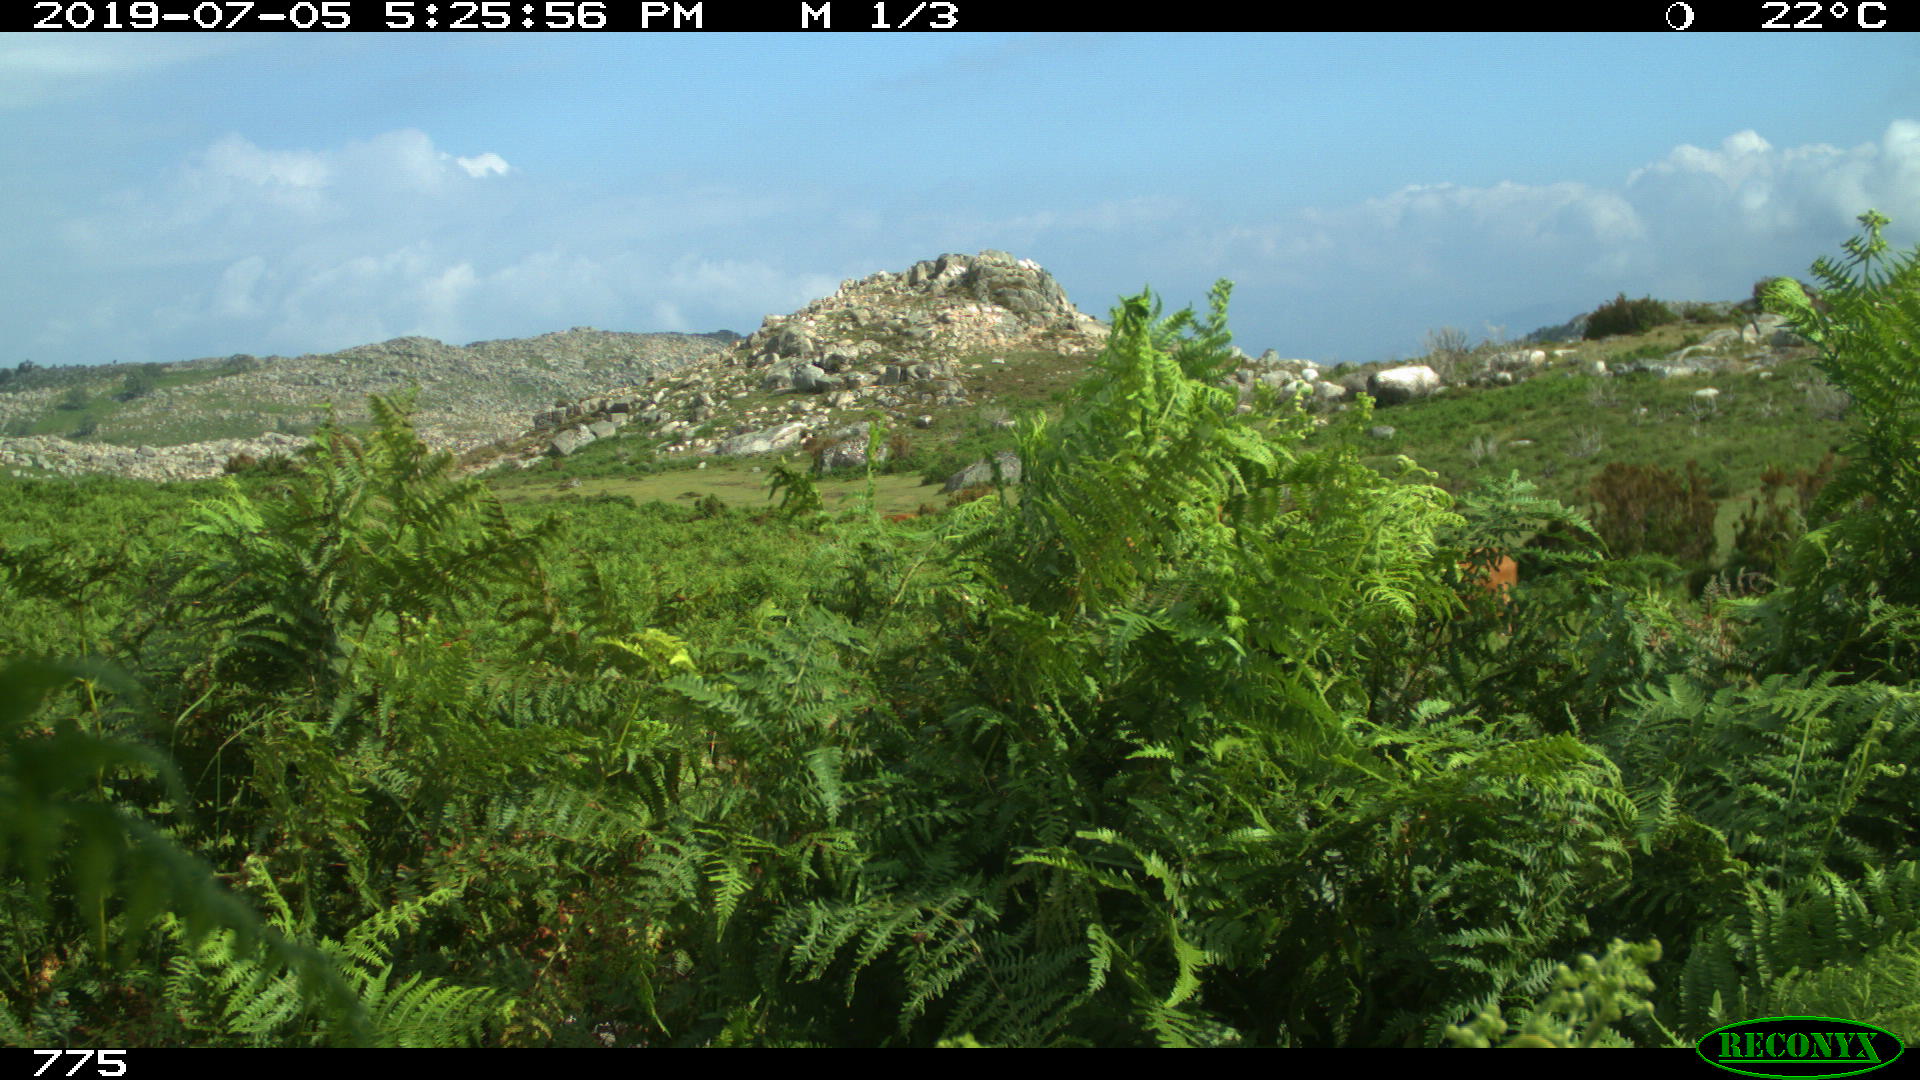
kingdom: Animalia
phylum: Chordata
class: Mammalia
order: Artiodactyla
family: Bovidae
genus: Bos
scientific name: Bos taurus
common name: Domesticated cattle
